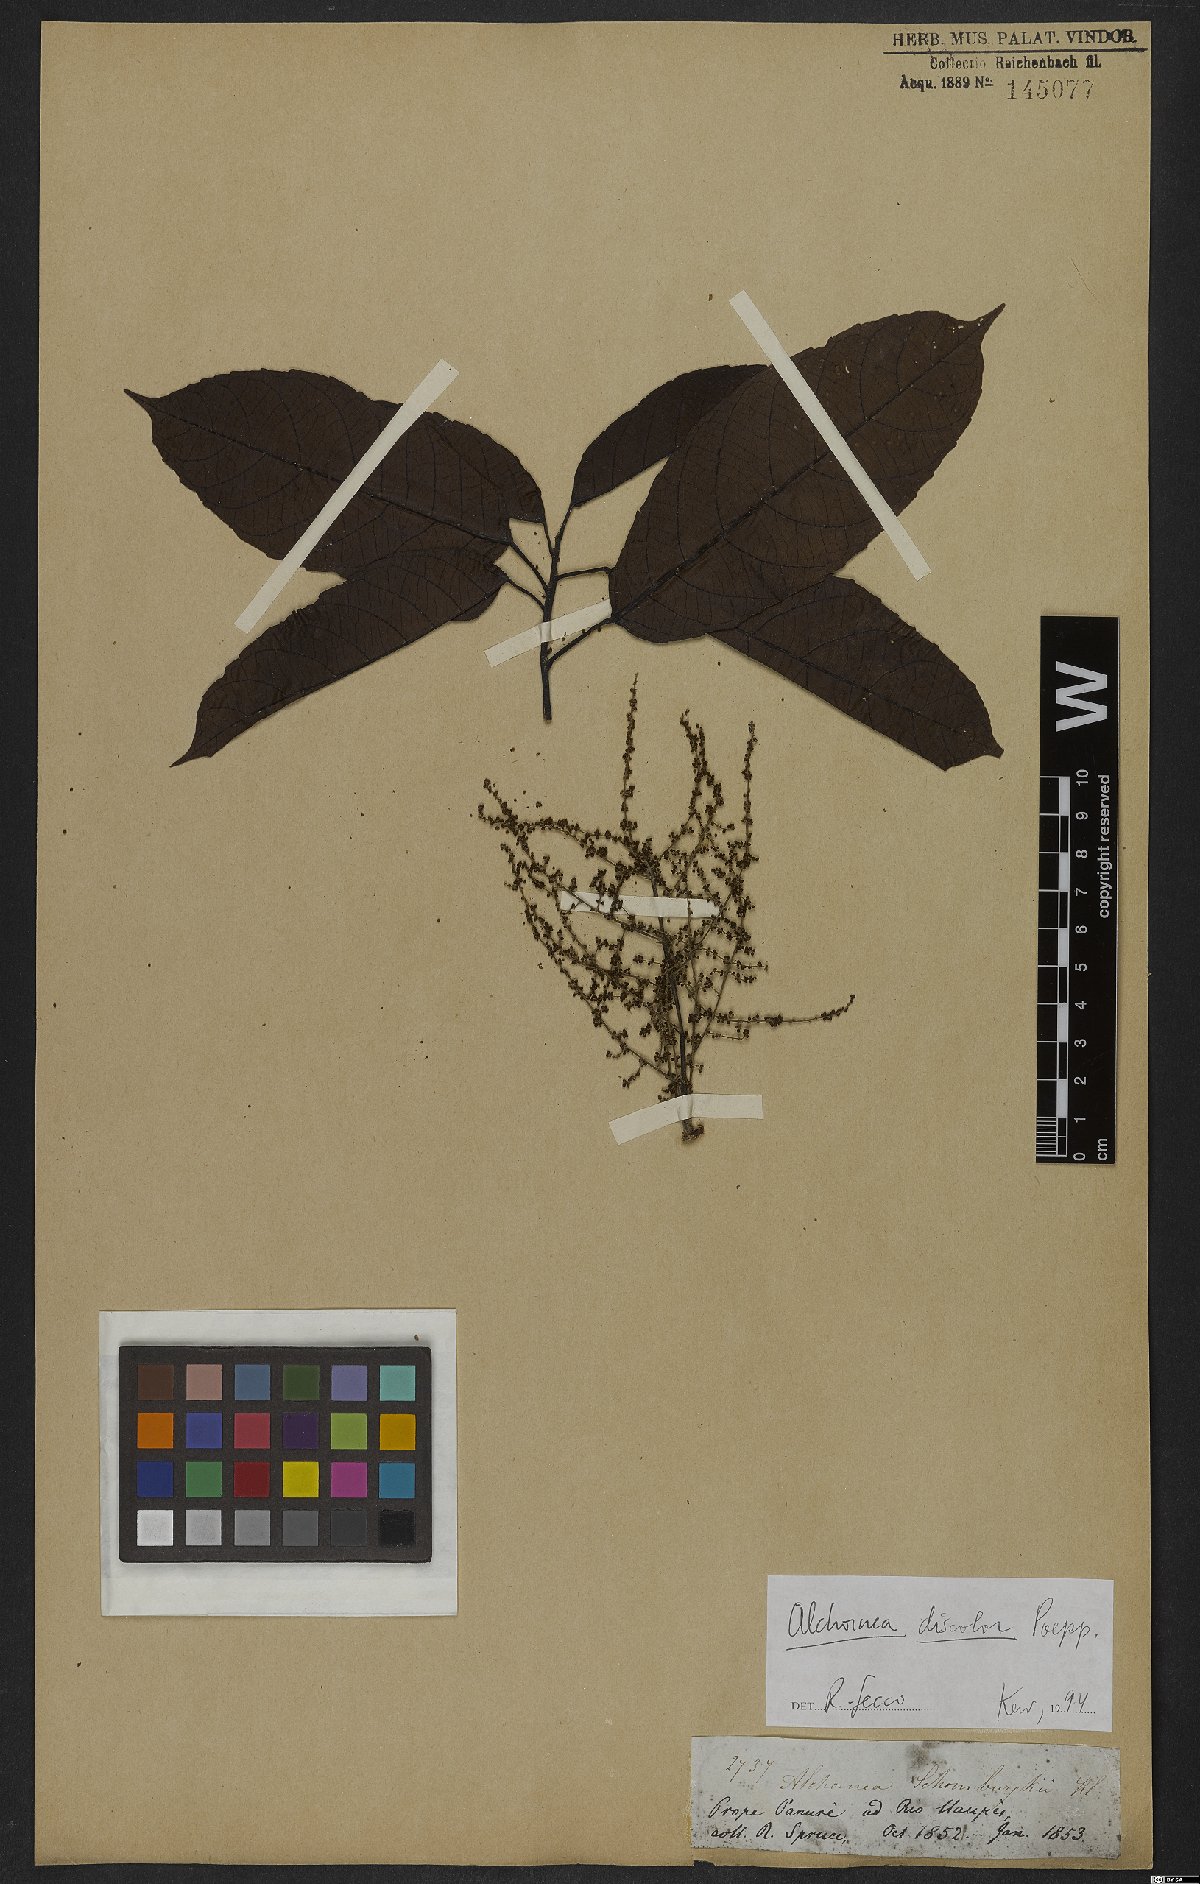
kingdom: Plantae
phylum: Tracheophyta
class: Magnoliopsida
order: Malpighiales
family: Euphorbiaceae
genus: Alchornea
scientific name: Alchornea discolor
